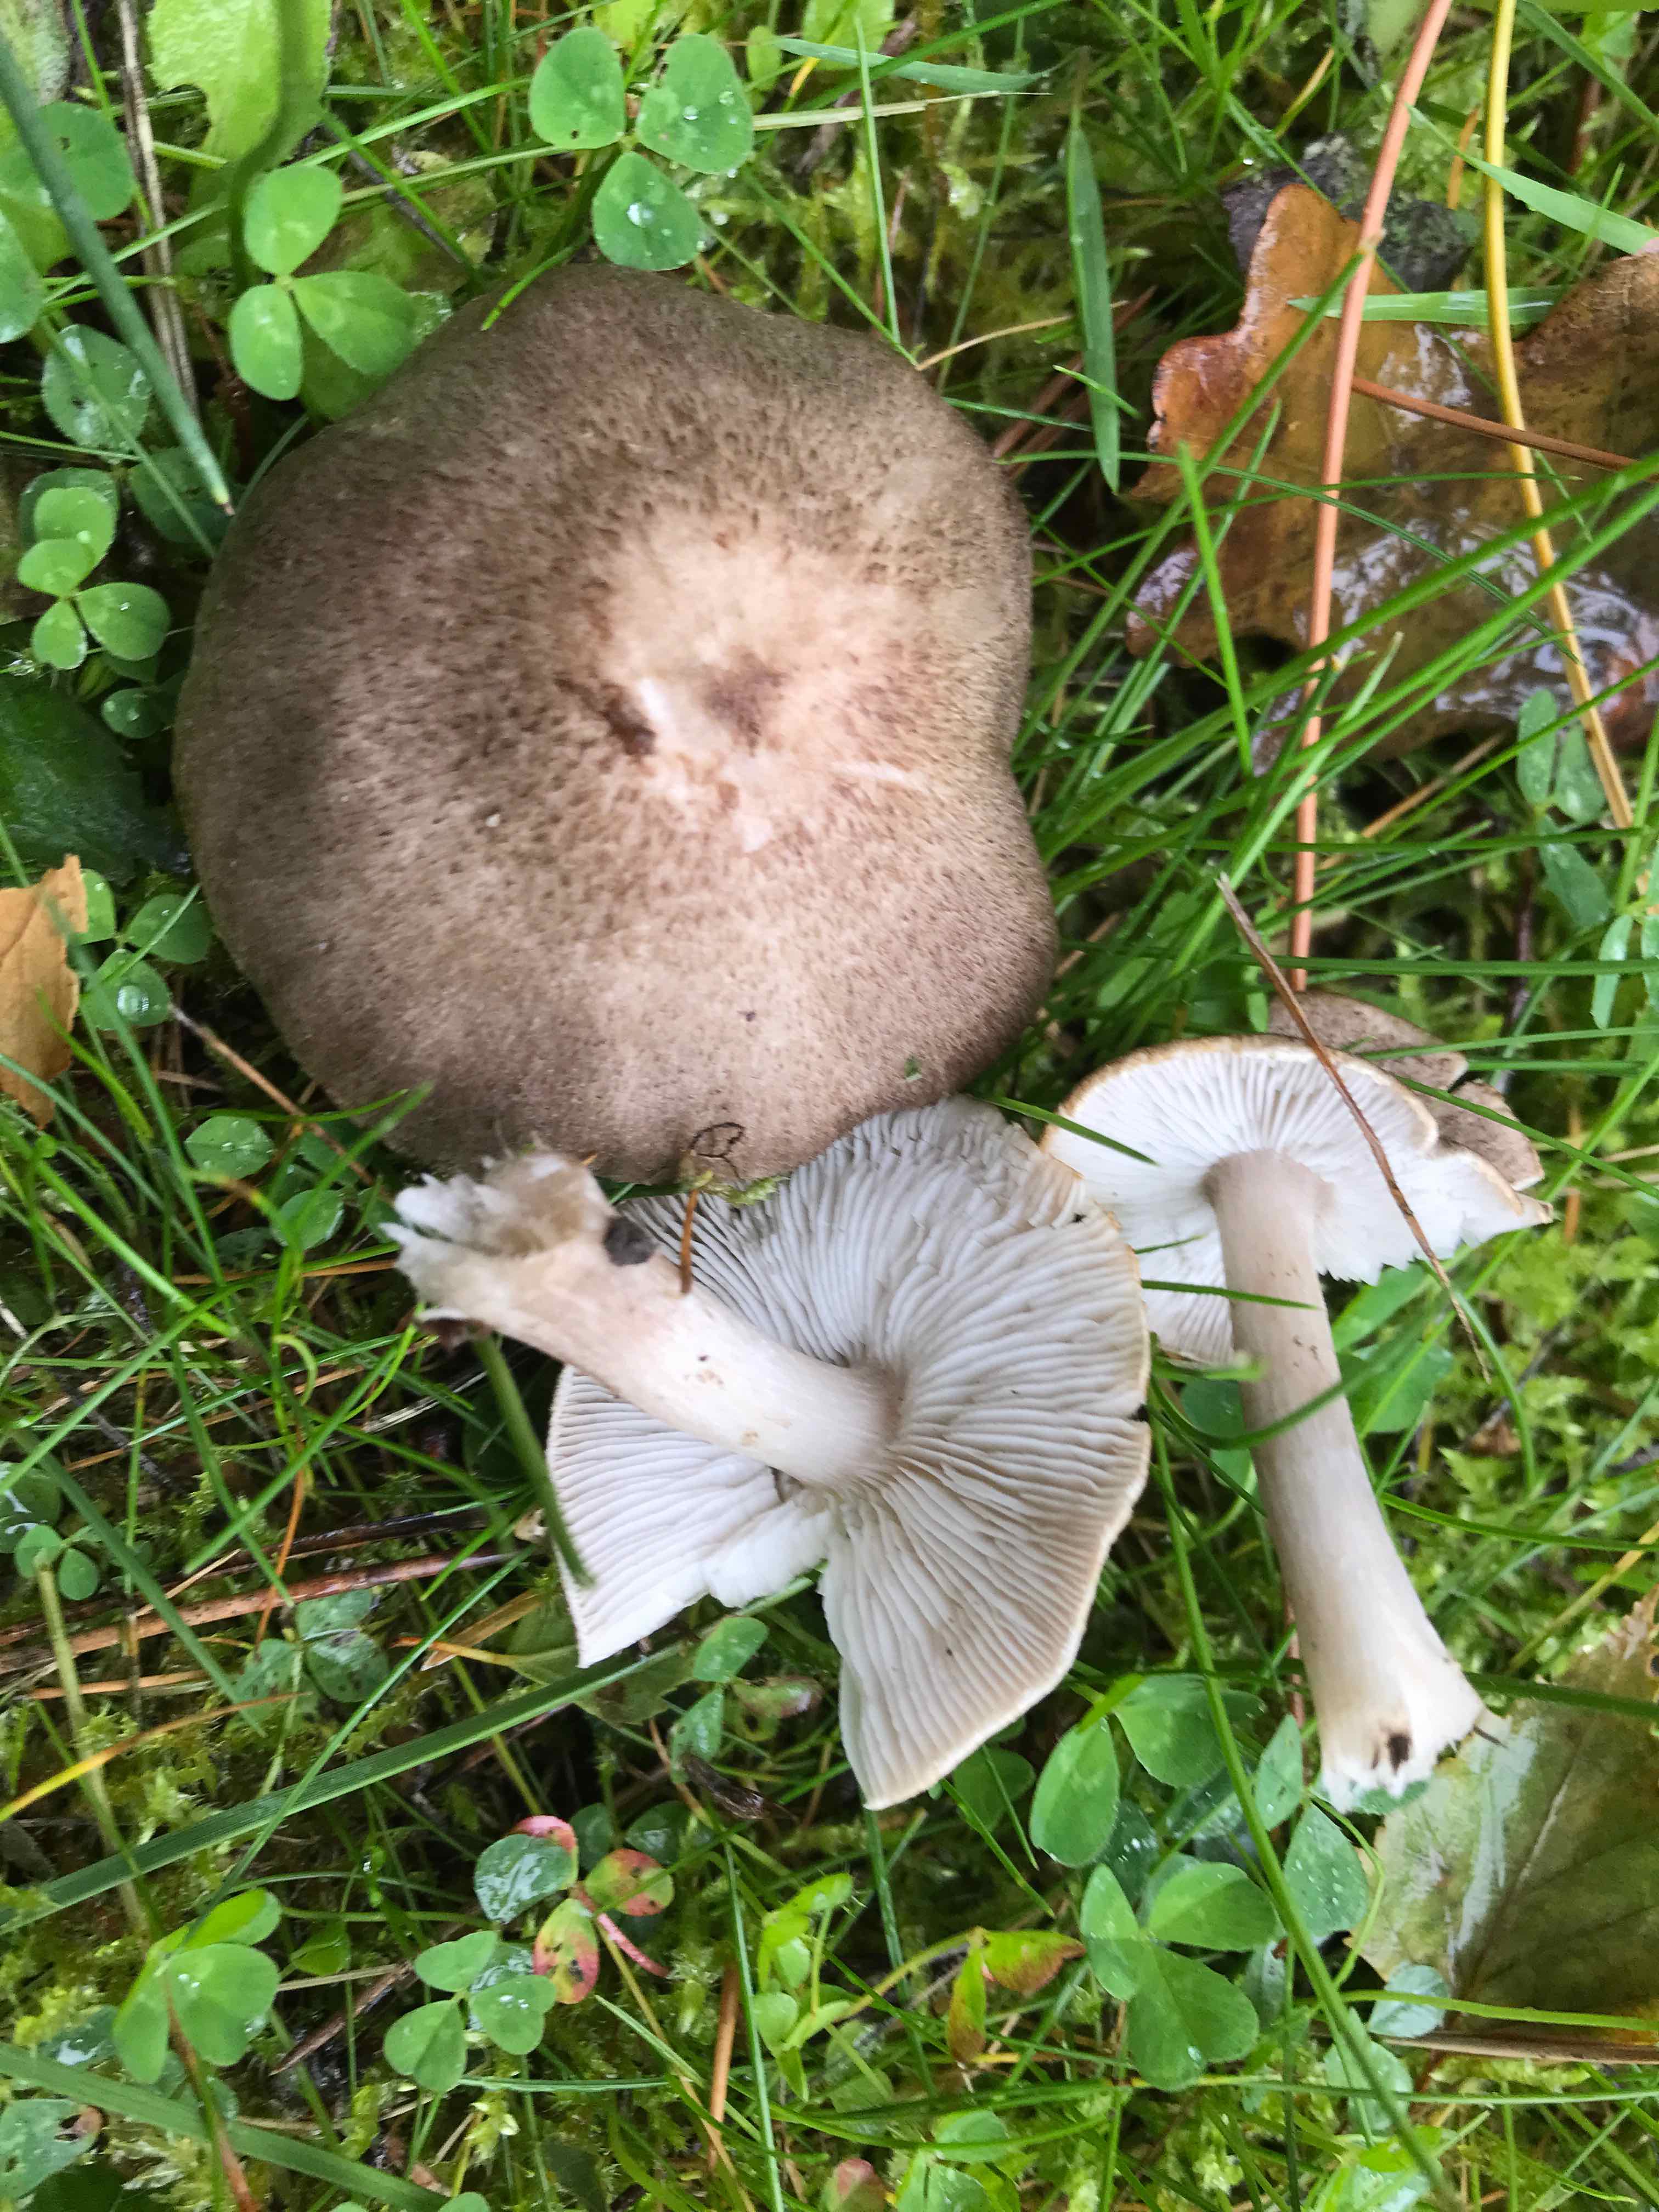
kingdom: Fungi
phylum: Basidiomycota
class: Agaricomycetes
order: Agaricales
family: Tricholomataceae
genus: Tricholoma
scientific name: Tricholoma
